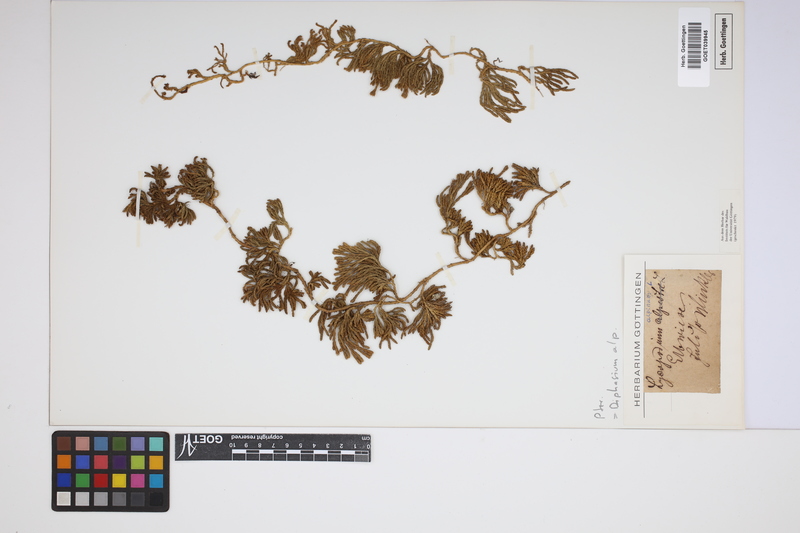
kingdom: Plantae
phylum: Tracheophyta
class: Lycopodiopsida
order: Lycopodiales
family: Lycopodiaceae
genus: Diphasiastrum
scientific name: Diphasiastrum alpinum
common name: Alpine clubmoss
